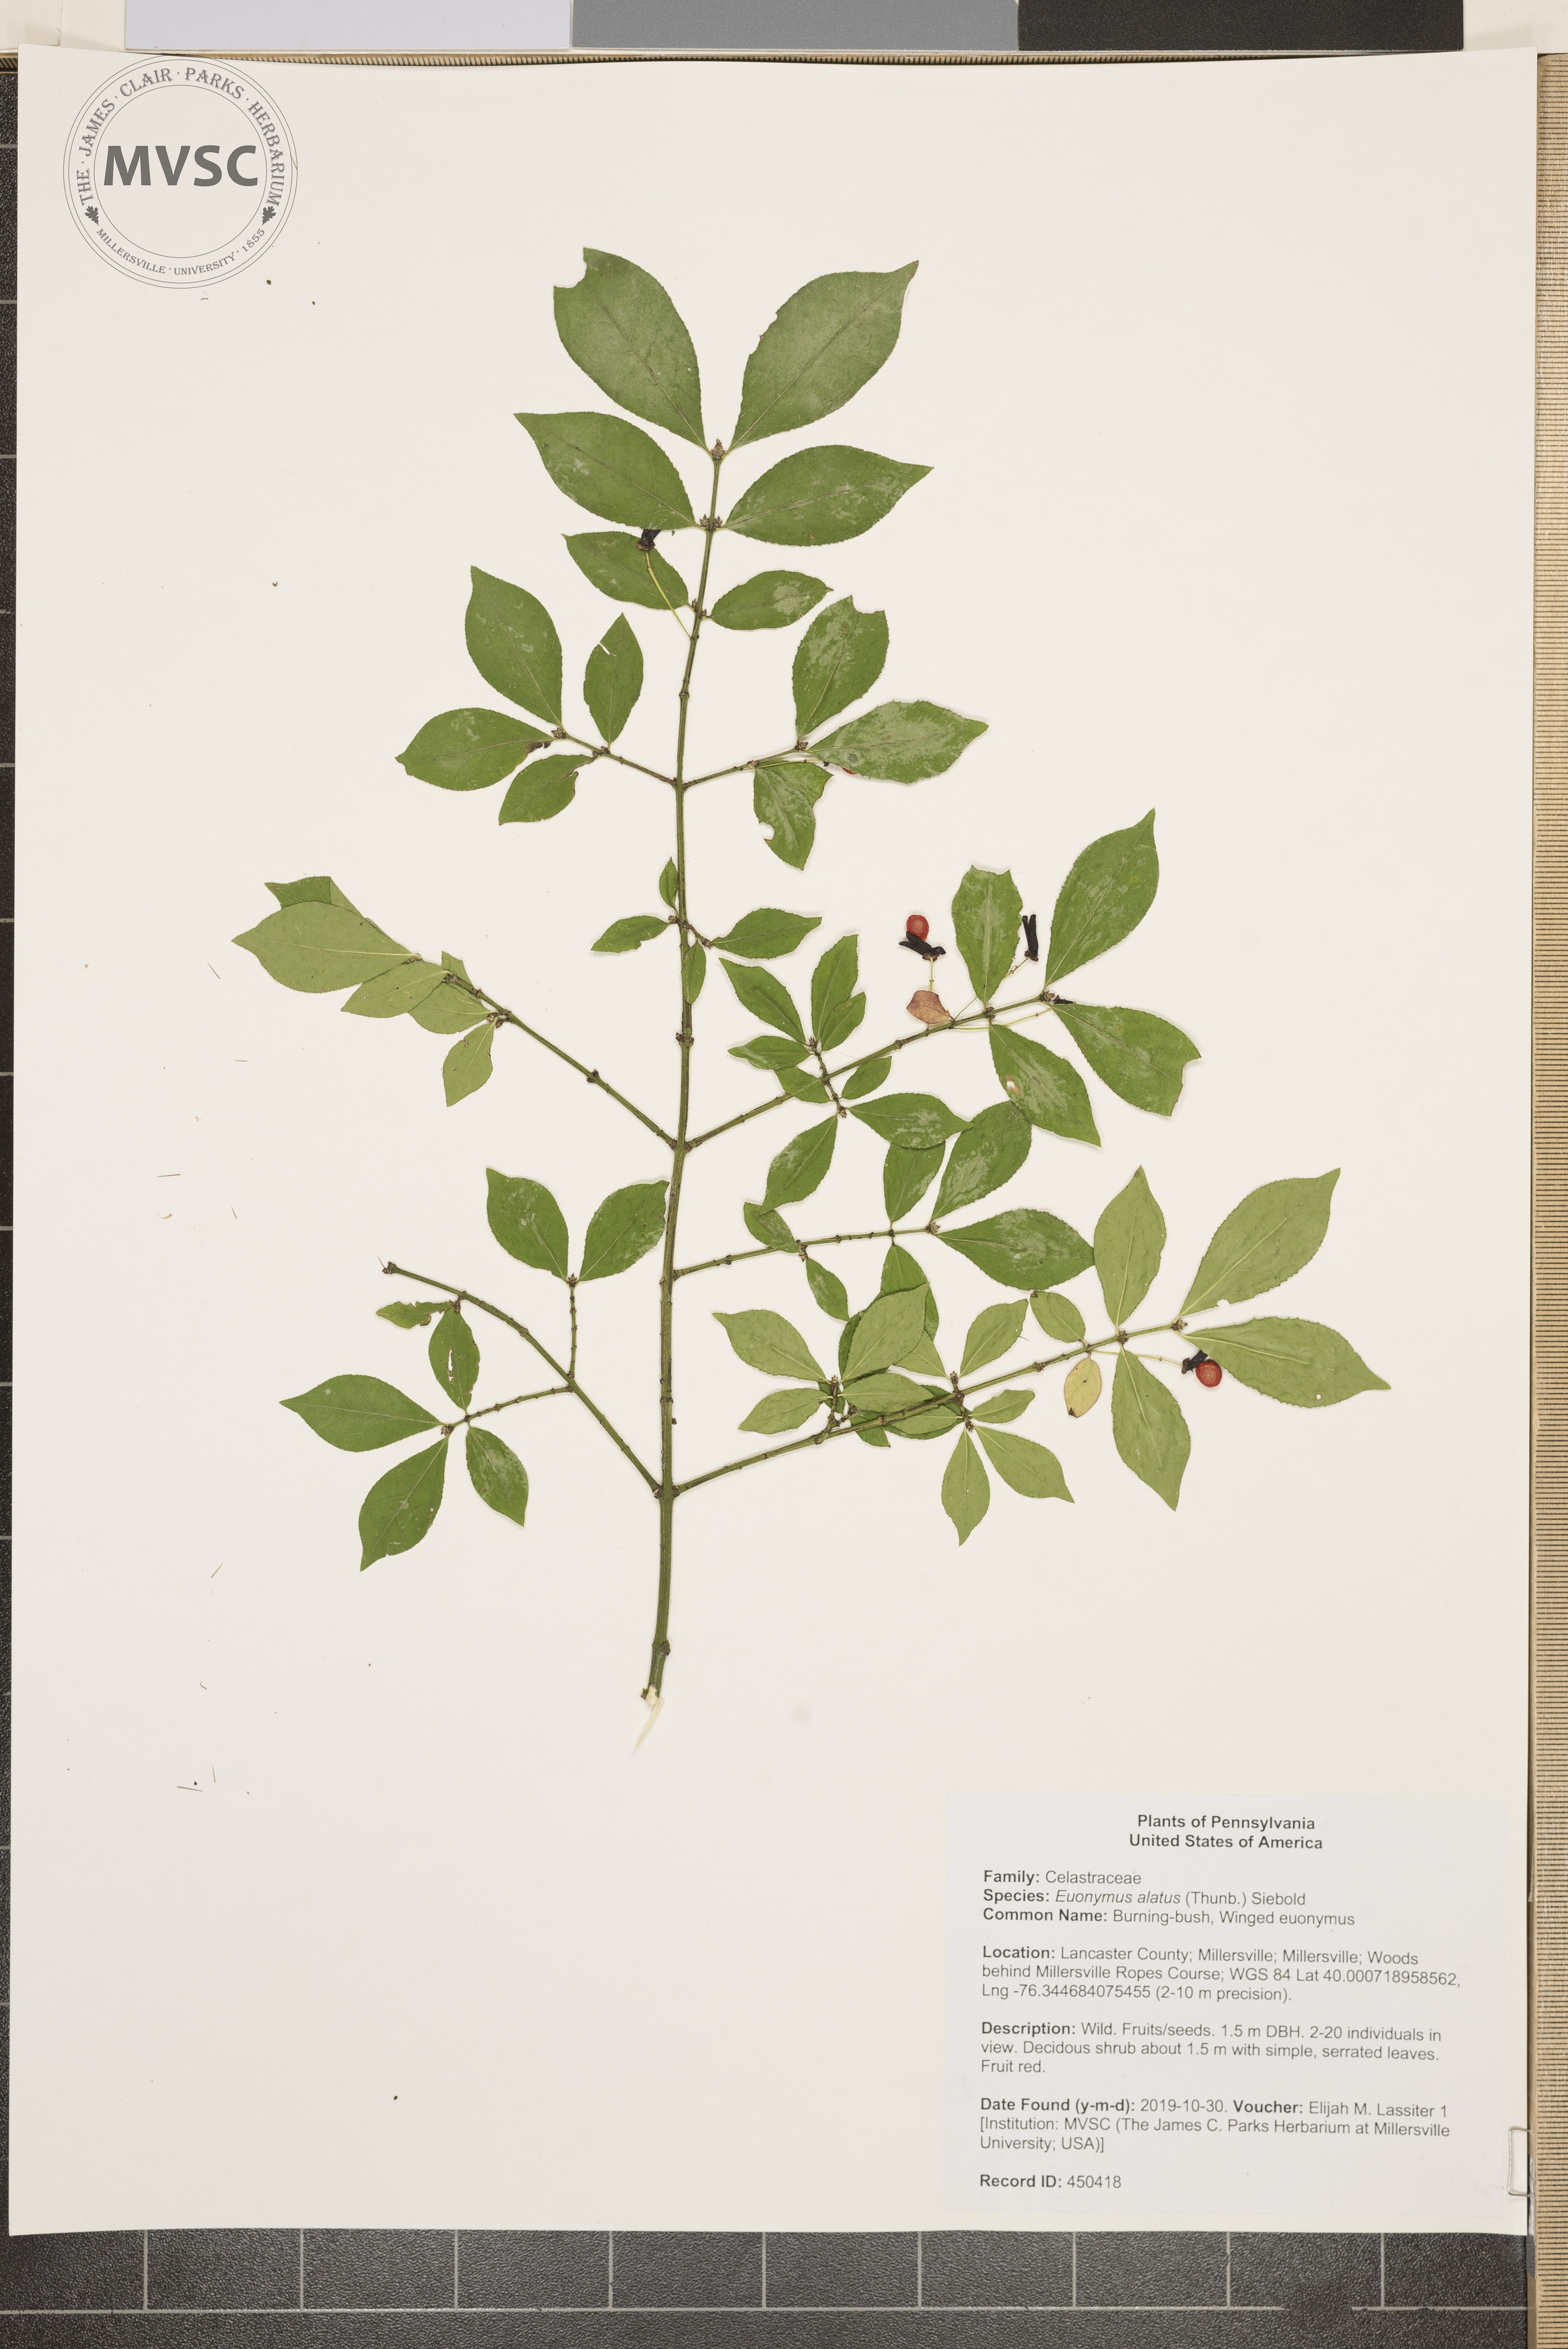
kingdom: Plantae
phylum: Tracheophyta
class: Magnoliopsida
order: Celastrales
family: Celastraceae
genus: Euonymus
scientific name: Euonymus alatus
